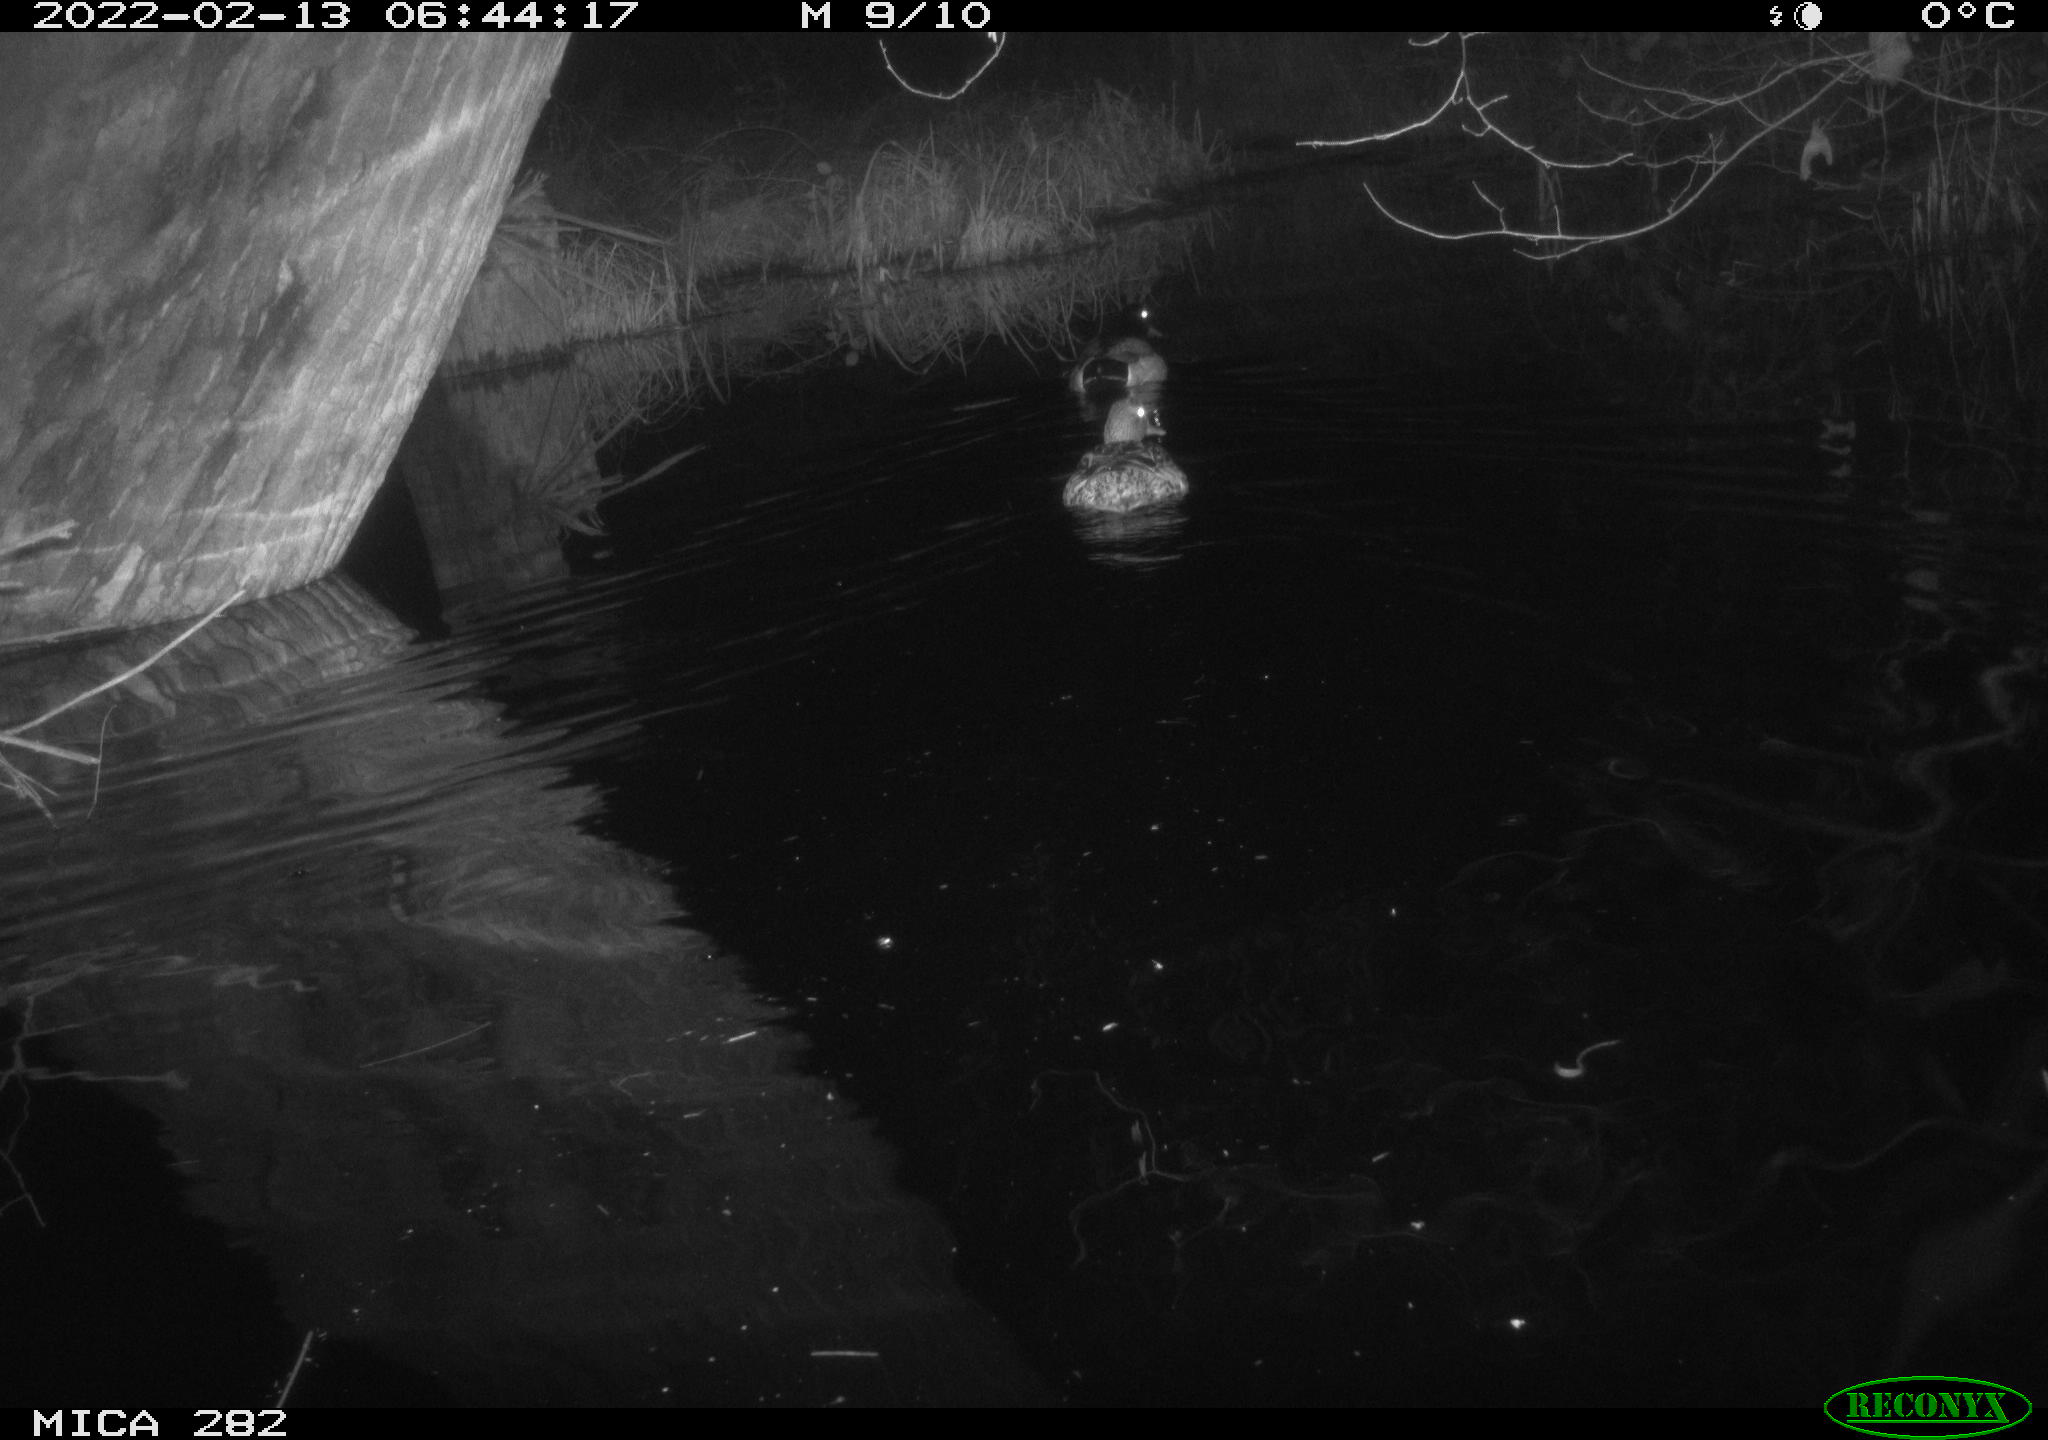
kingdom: Animalia
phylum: Chordata
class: Aves
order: Anseriformes
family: Anatidae
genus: Anas
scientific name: Anas platyrhynchos
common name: Mallard
